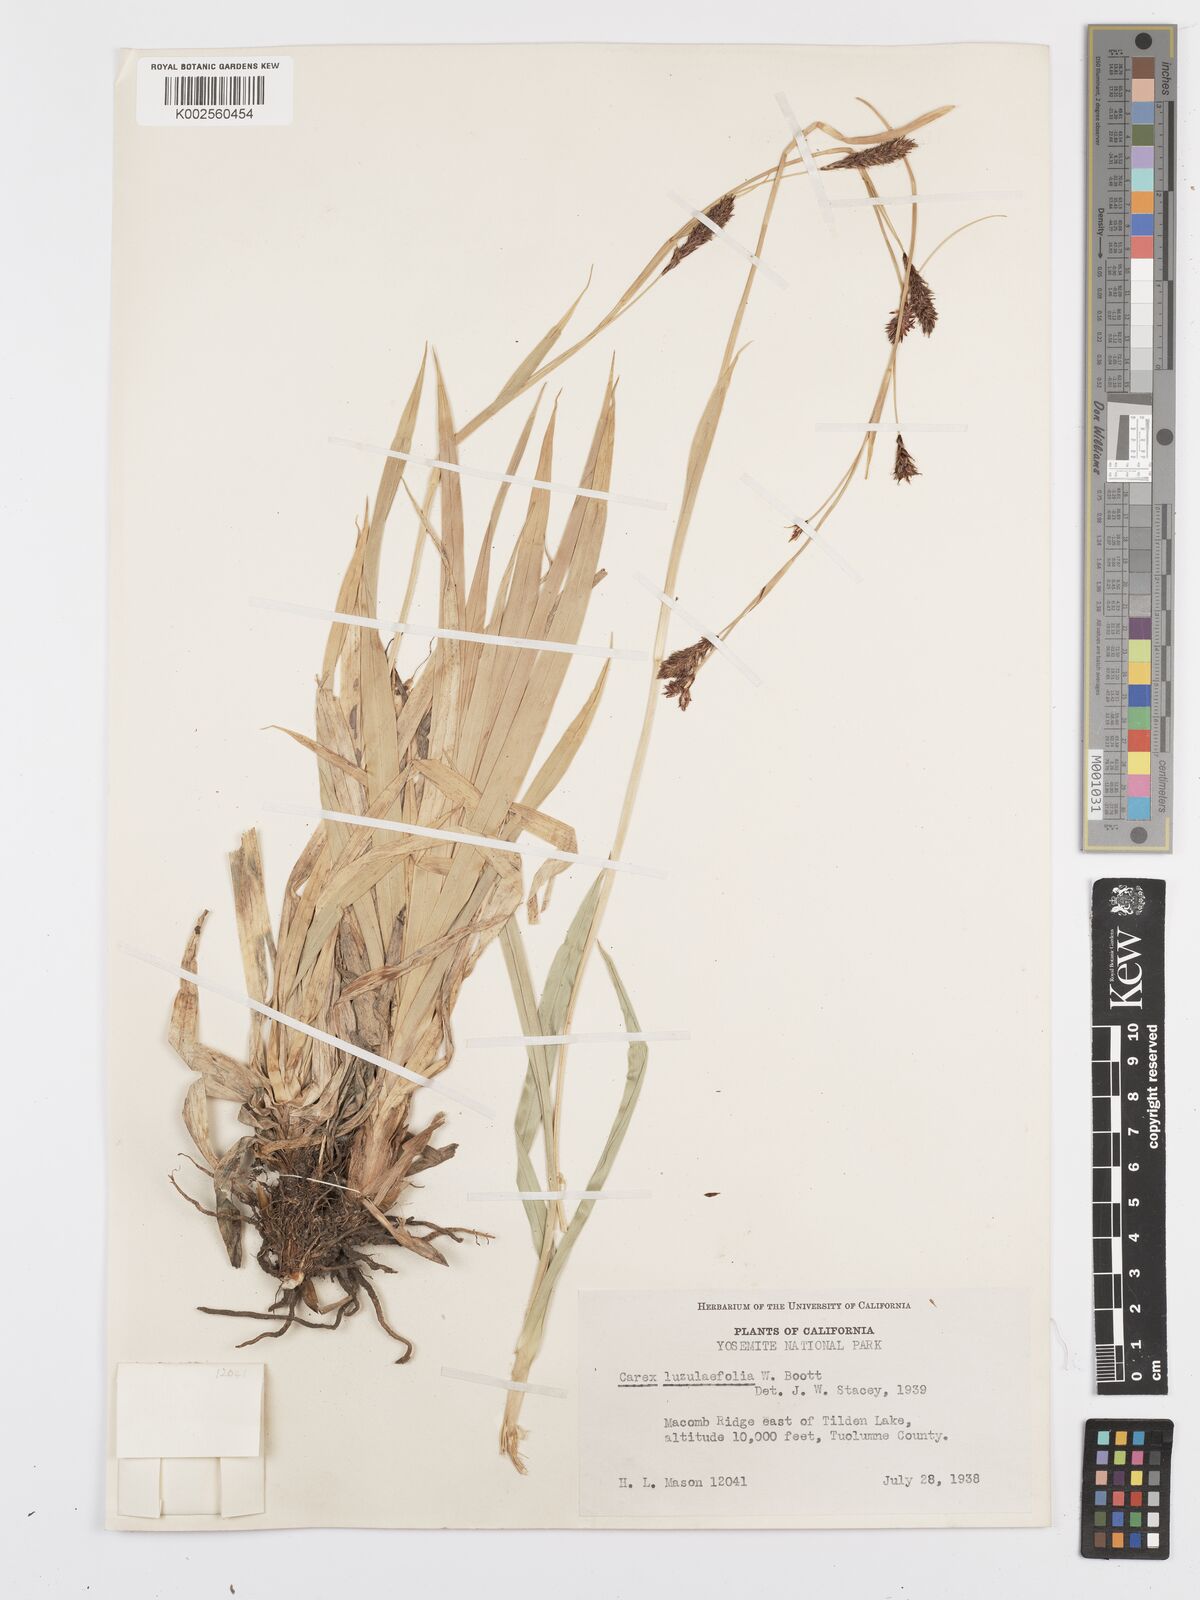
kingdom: Plantae
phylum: Tracheophyta
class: Liliopsida
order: Poales
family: Cyperaceae
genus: Carex
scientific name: Carex luzulifolia
